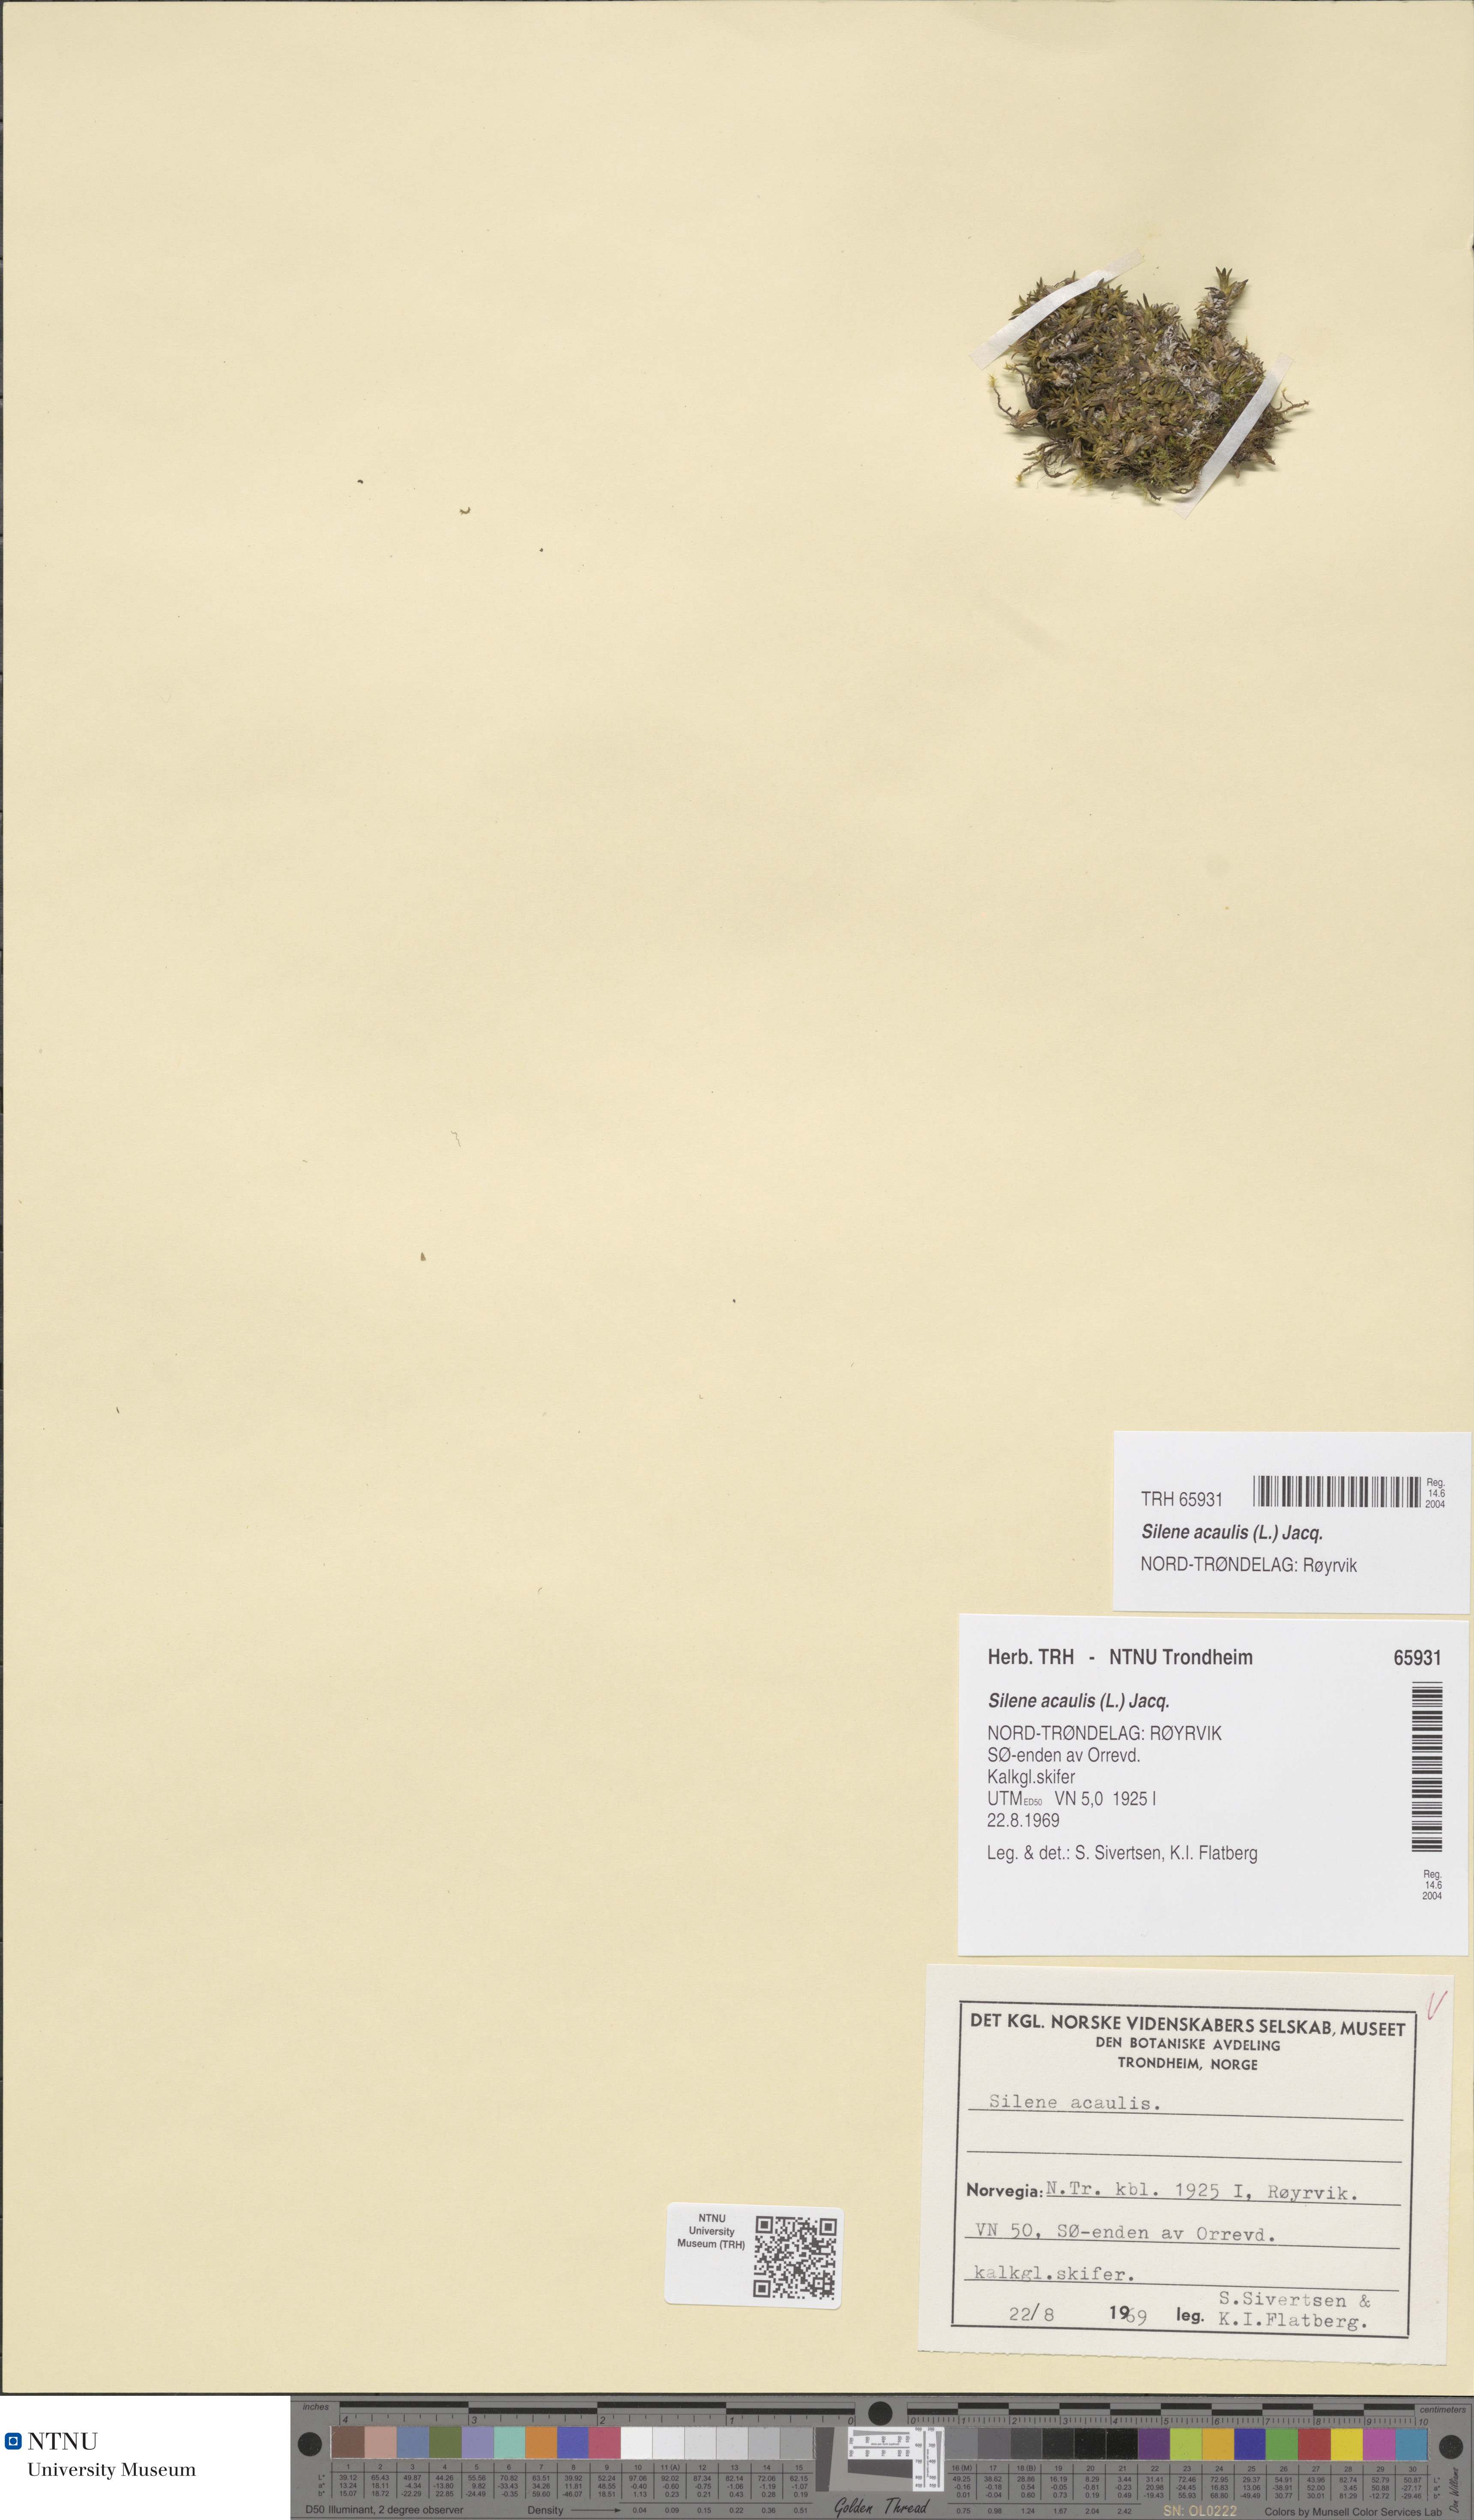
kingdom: Plantae
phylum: Tracheophyta
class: Magnoliopsida
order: Caryophyllales
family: Caryophyllaceae
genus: Silene
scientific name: Silene acaulis
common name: Moss campion
